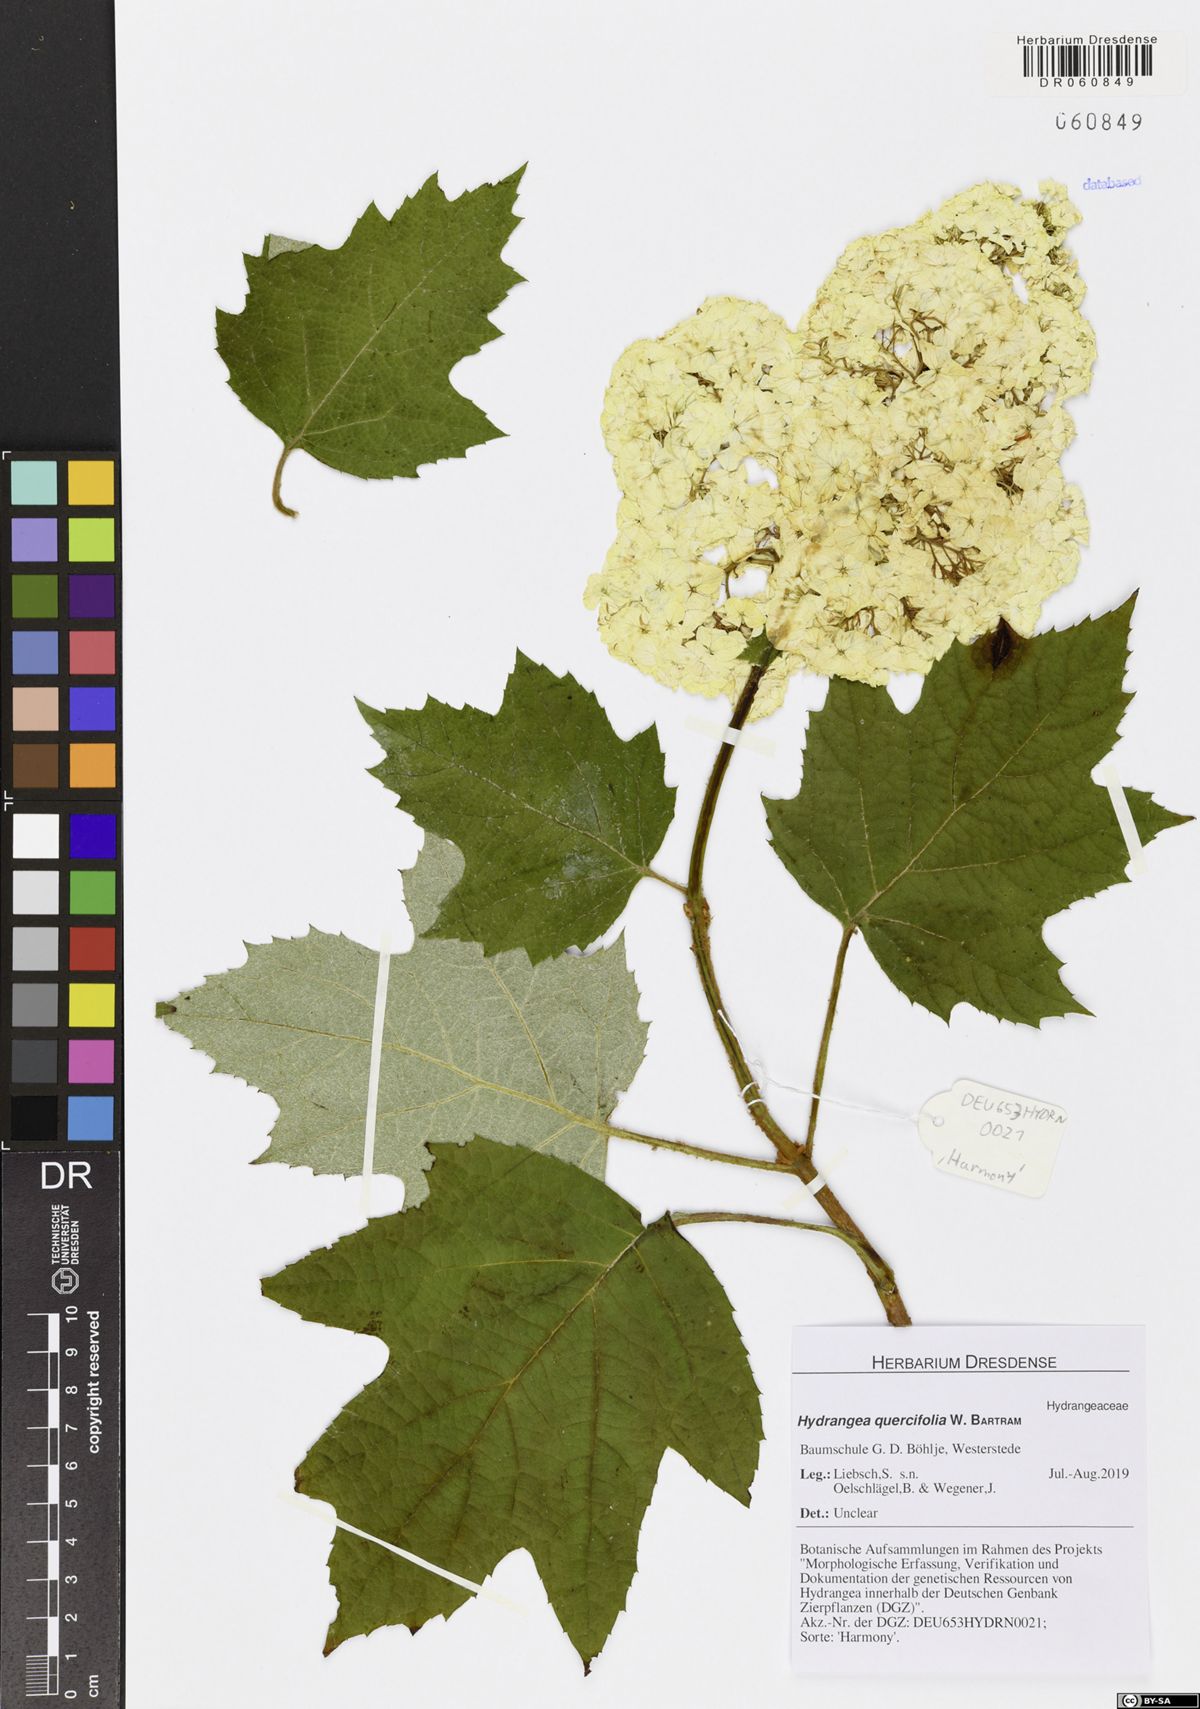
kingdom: Plantae
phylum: Tracheophyta
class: Magnoliopsida
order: Cornales
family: Hydrangeaceae
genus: Hydrangea
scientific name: Hydrangea quercifolia
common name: Oak-leaf hydrangea
